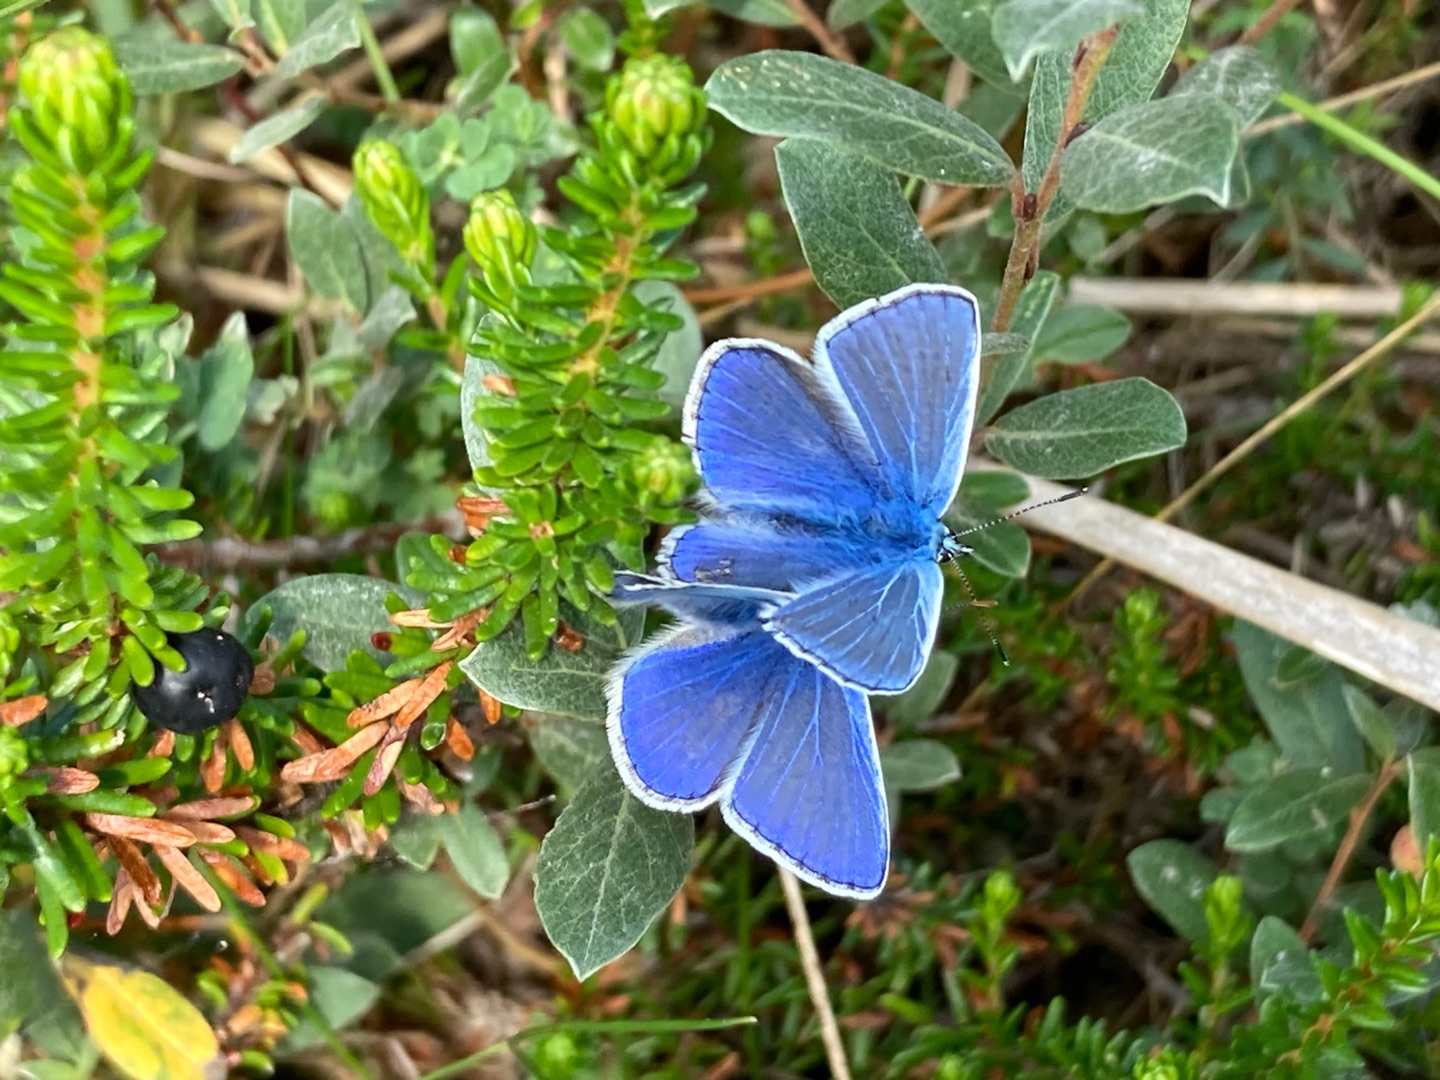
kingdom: Animalia
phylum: Arthropoda
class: Insecta
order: Lepidoptera
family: Lycaenidae
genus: Polyommatus
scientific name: Polyommatus icarus
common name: Almindelig blåfugl
